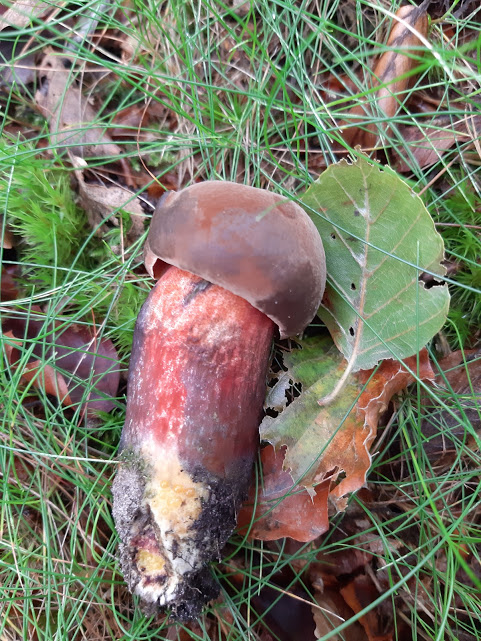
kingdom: Fungi
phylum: Basidiomycota
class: Agaricomycetes
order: Boletales
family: Boletaceae
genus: Neoboletus
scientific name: Neoboletus erythropus
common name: punktstokket indigorørhat
